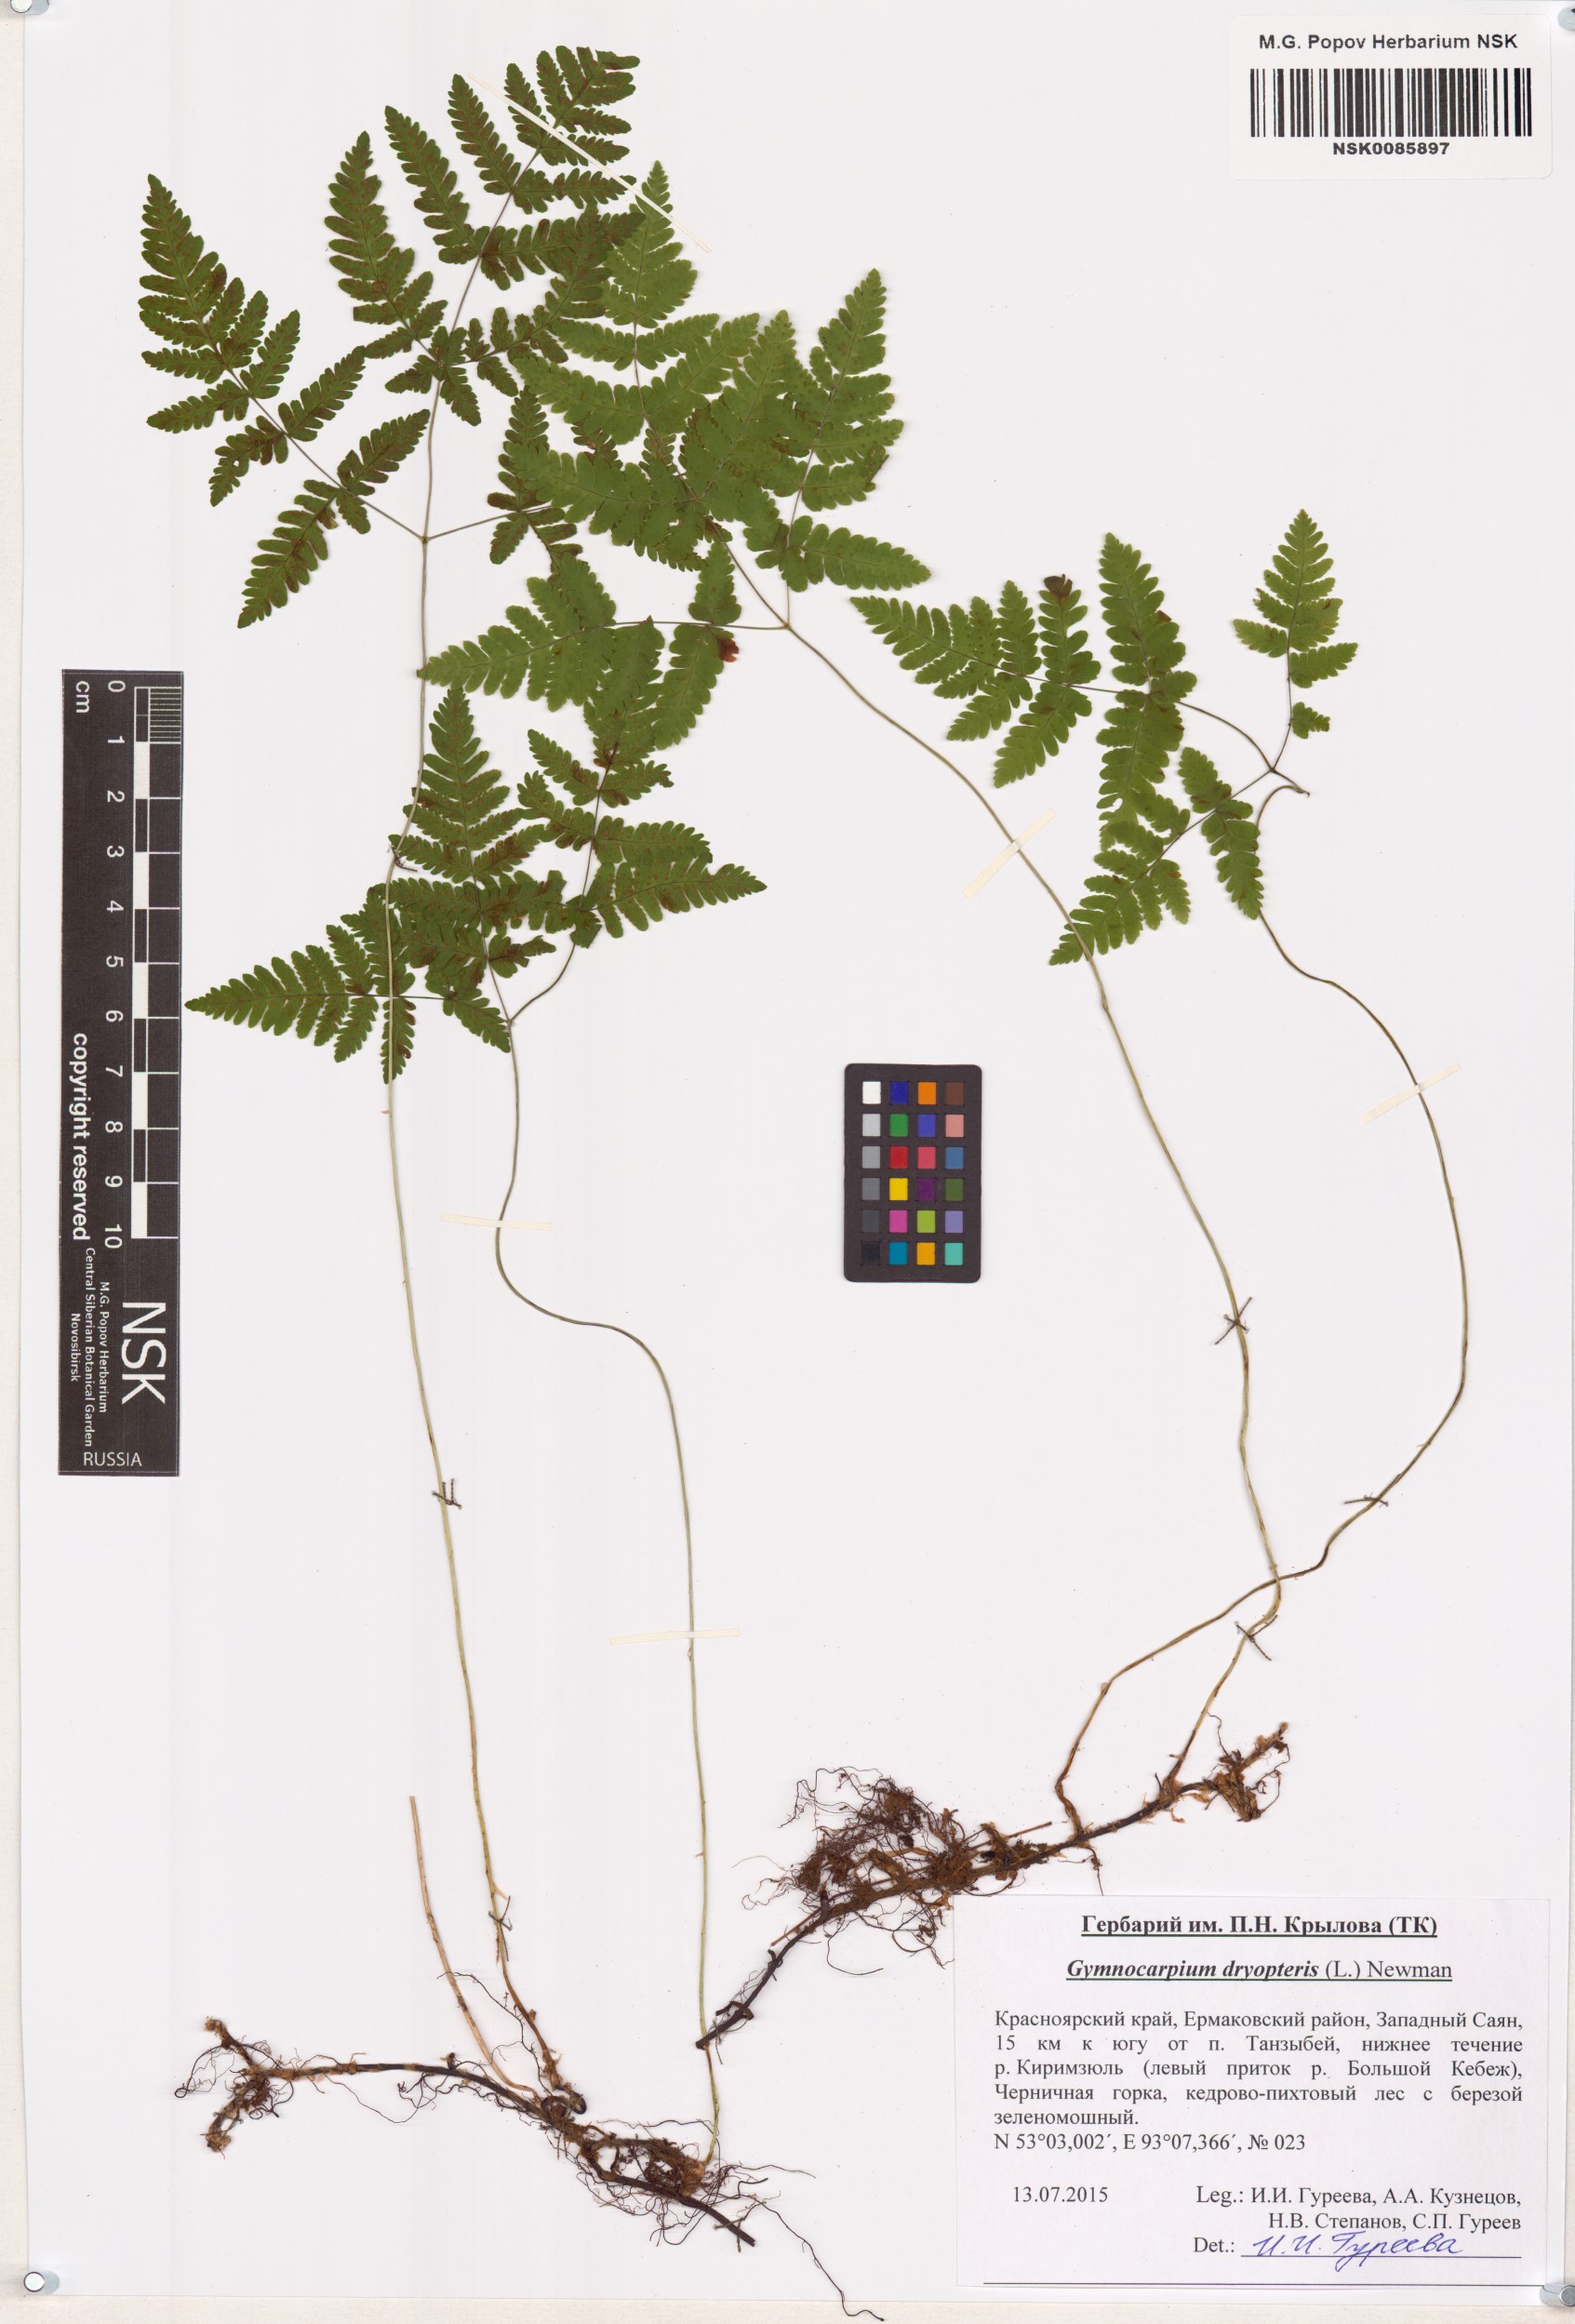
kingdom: Plantae
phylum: Tracheophyta
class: Polypodiopsida
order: Polypodiales
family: Cystopteridaceae
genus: Gymnocarpium
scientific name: Gymnocarpium dryopteris
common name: Oak fern
